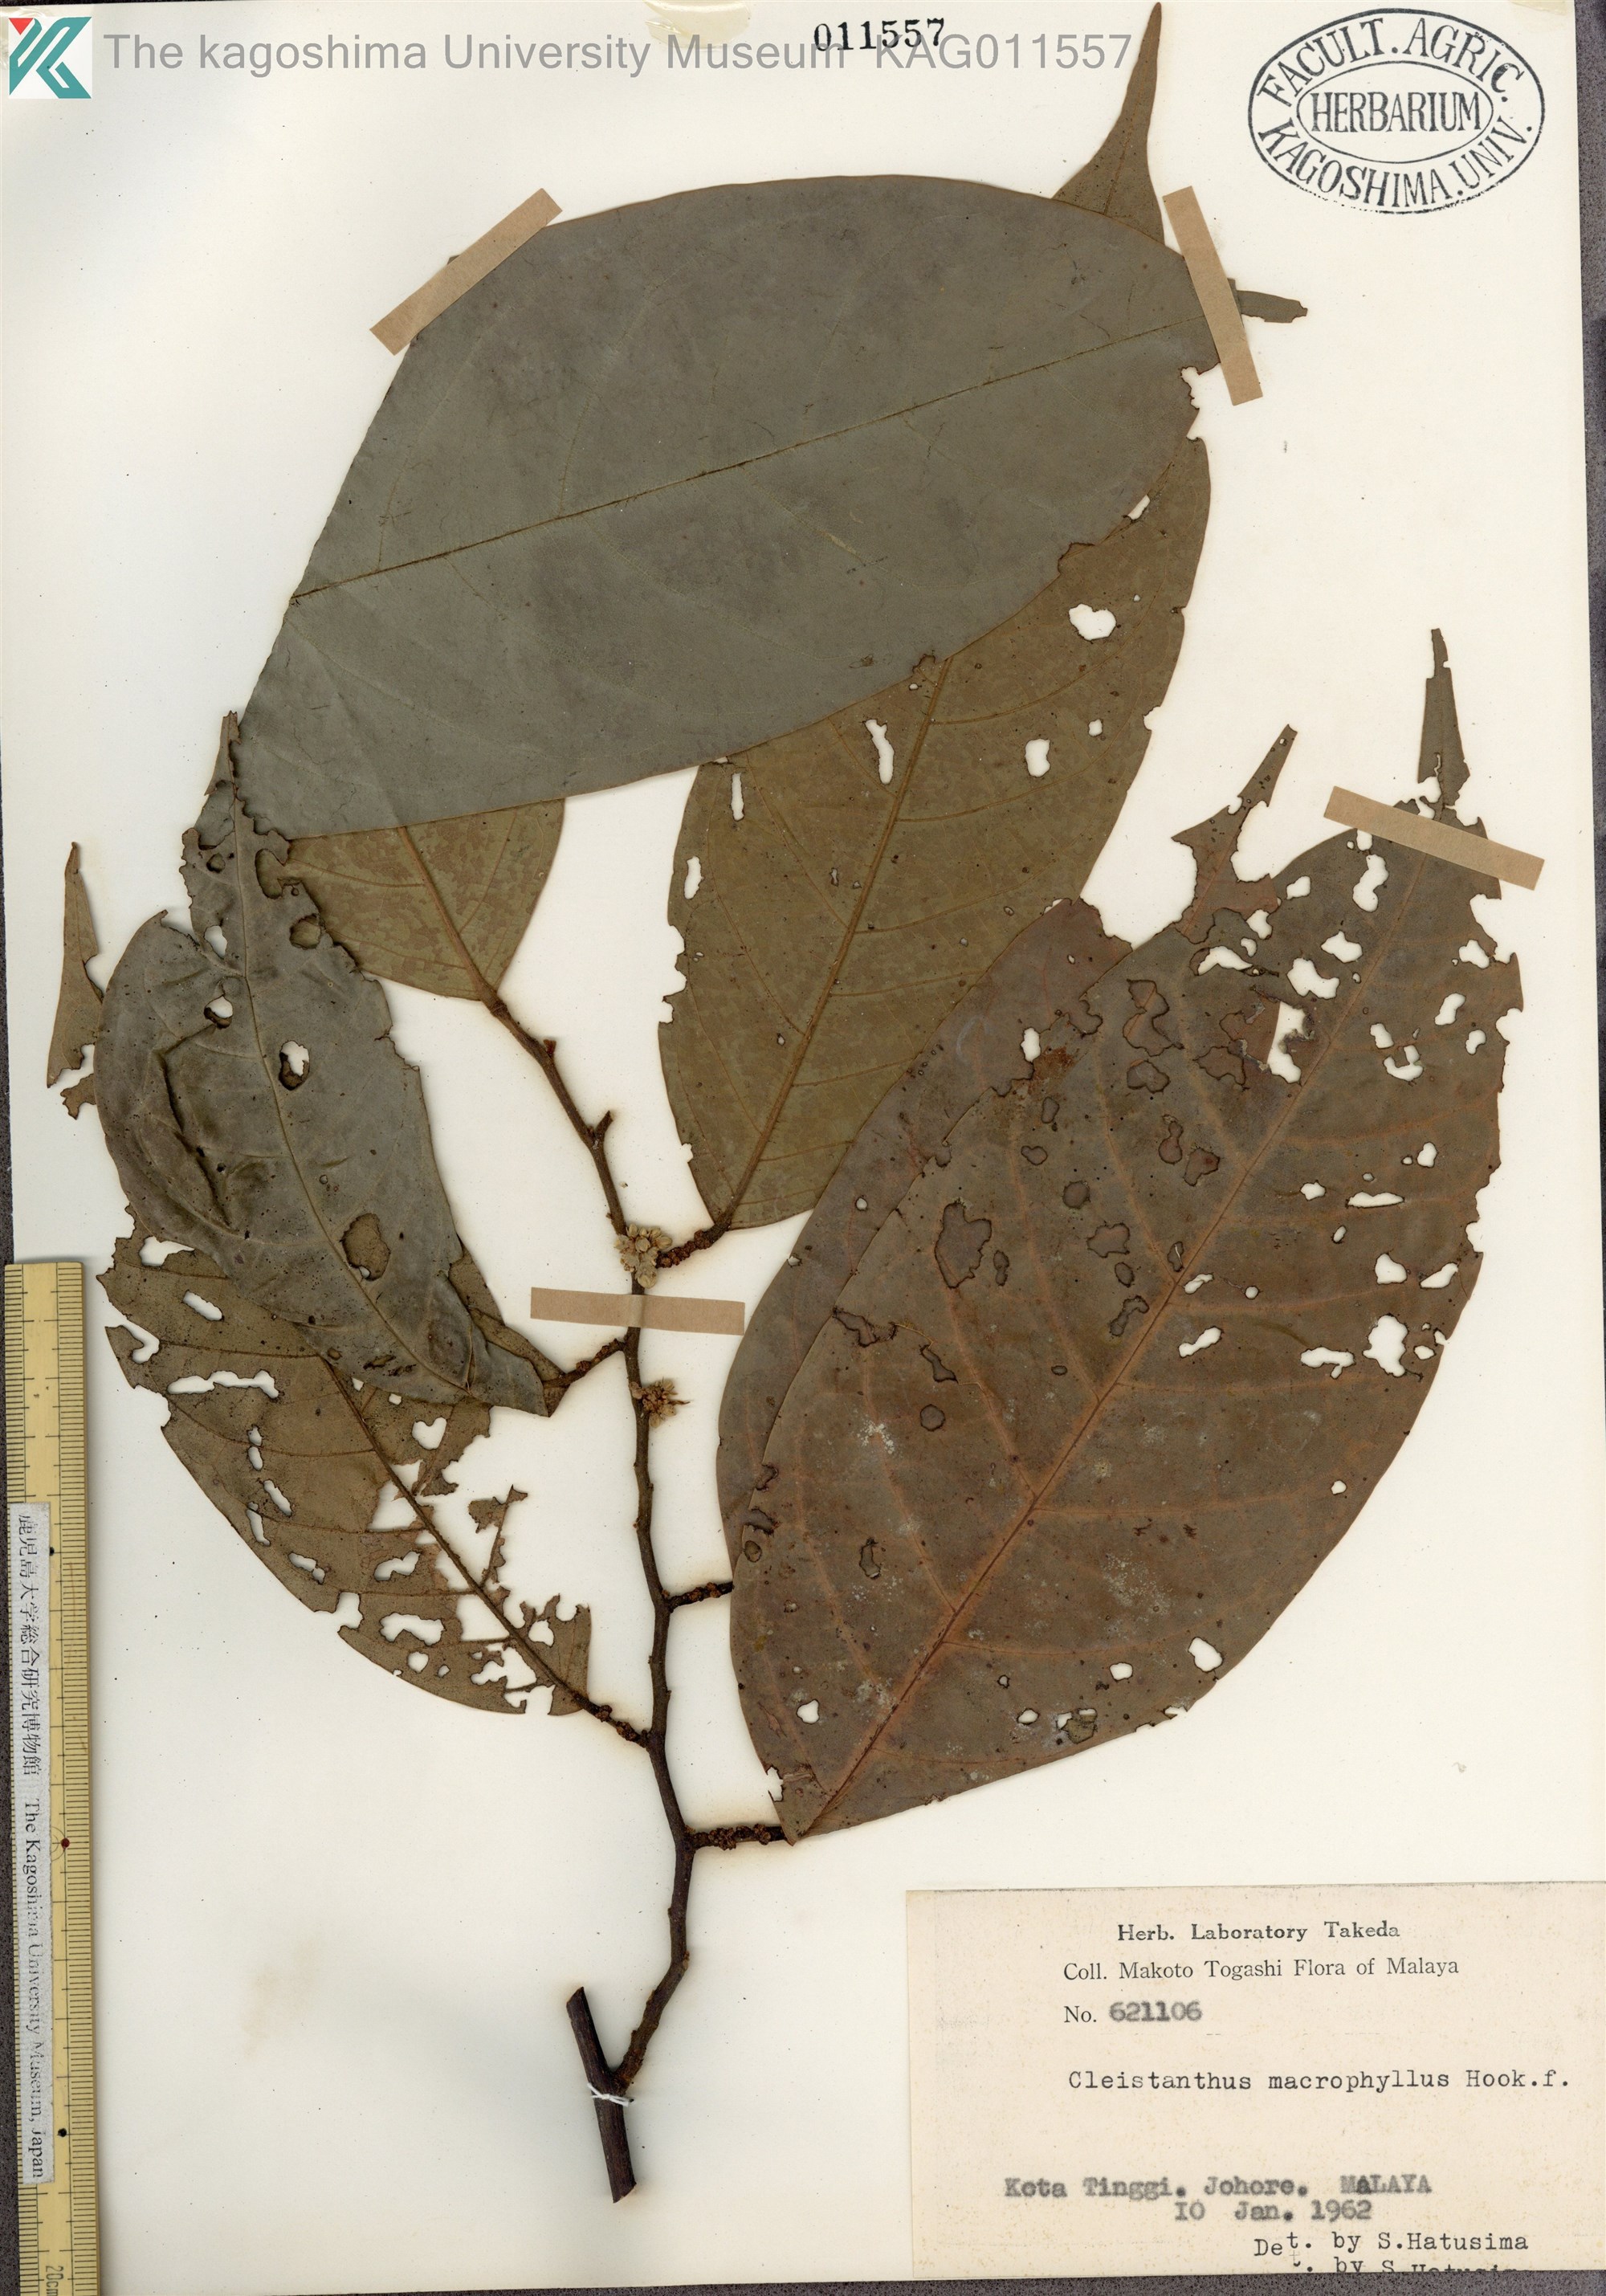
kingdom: Plantae
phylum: Tracheophyta
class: Magnoliopsida
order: Malpighiales
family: Phyllanthaceae
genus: Cleistanthus
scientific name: Cleistanthus macrophyllus
